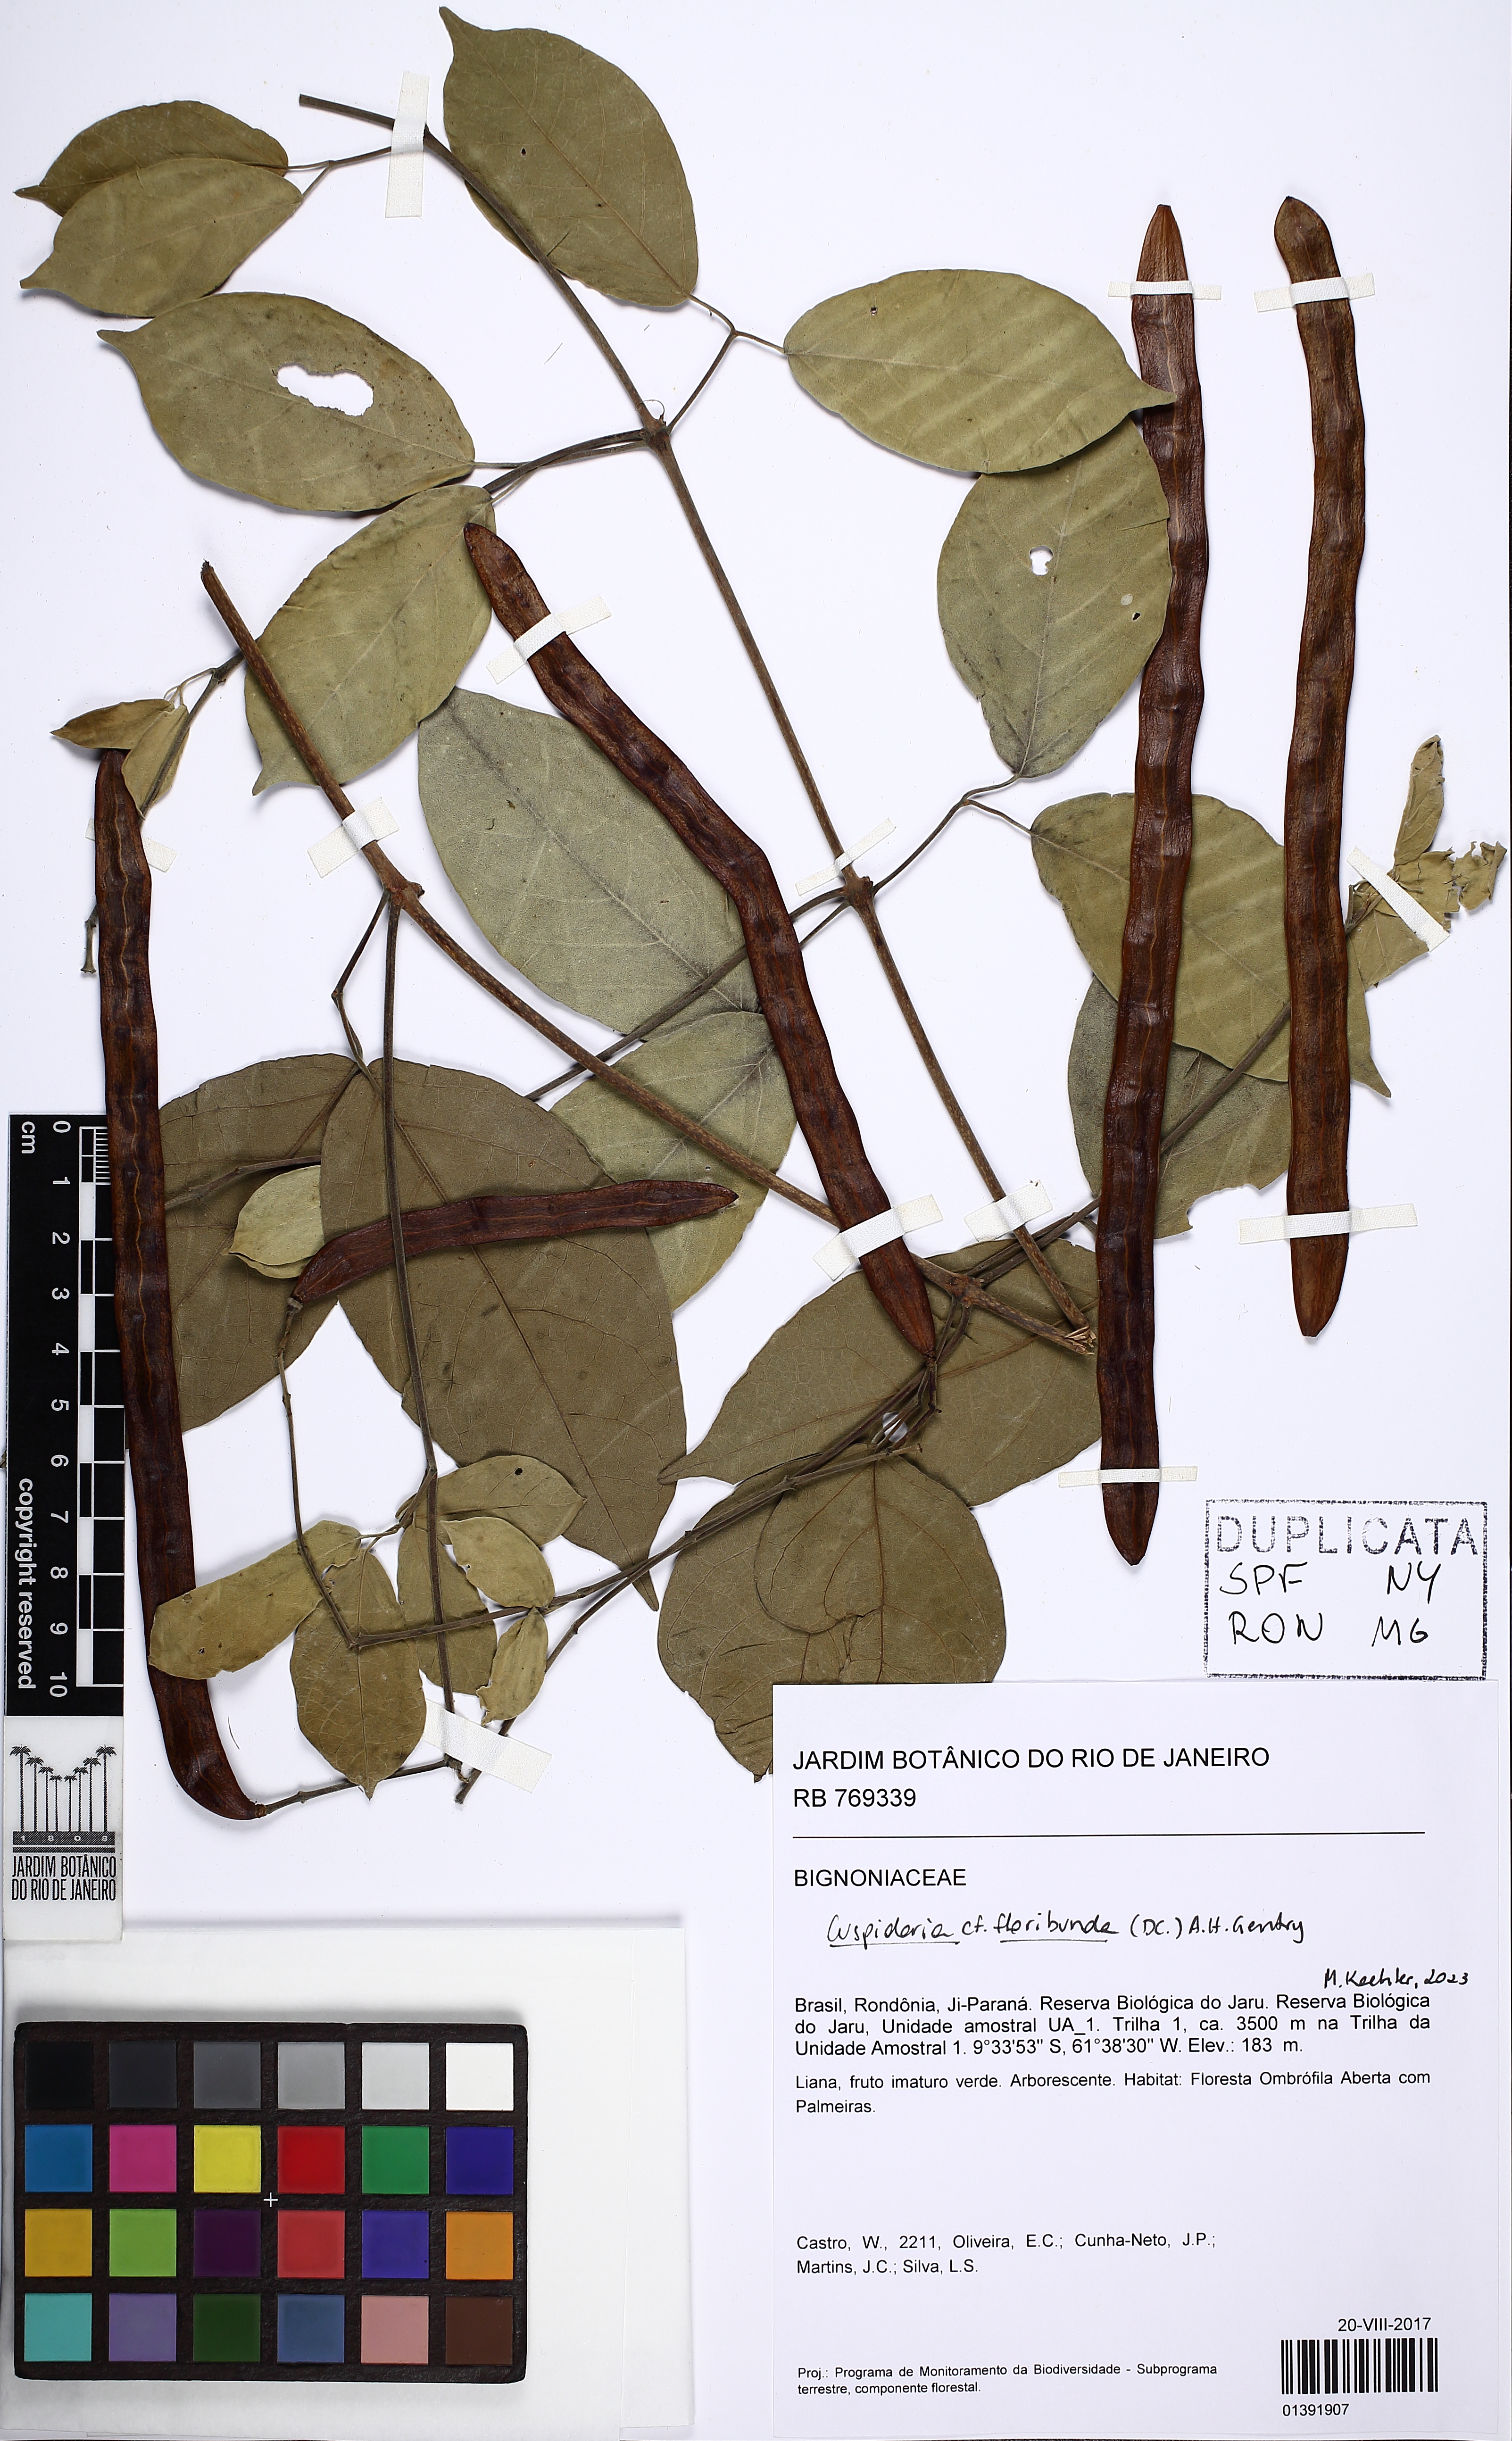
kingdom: Plantae
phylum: Tracheophyta
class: Magnoliopsida
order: Lamiales
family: Bignoniaceae
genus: Cuspidaria
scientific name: Cuspidaria cinerea
